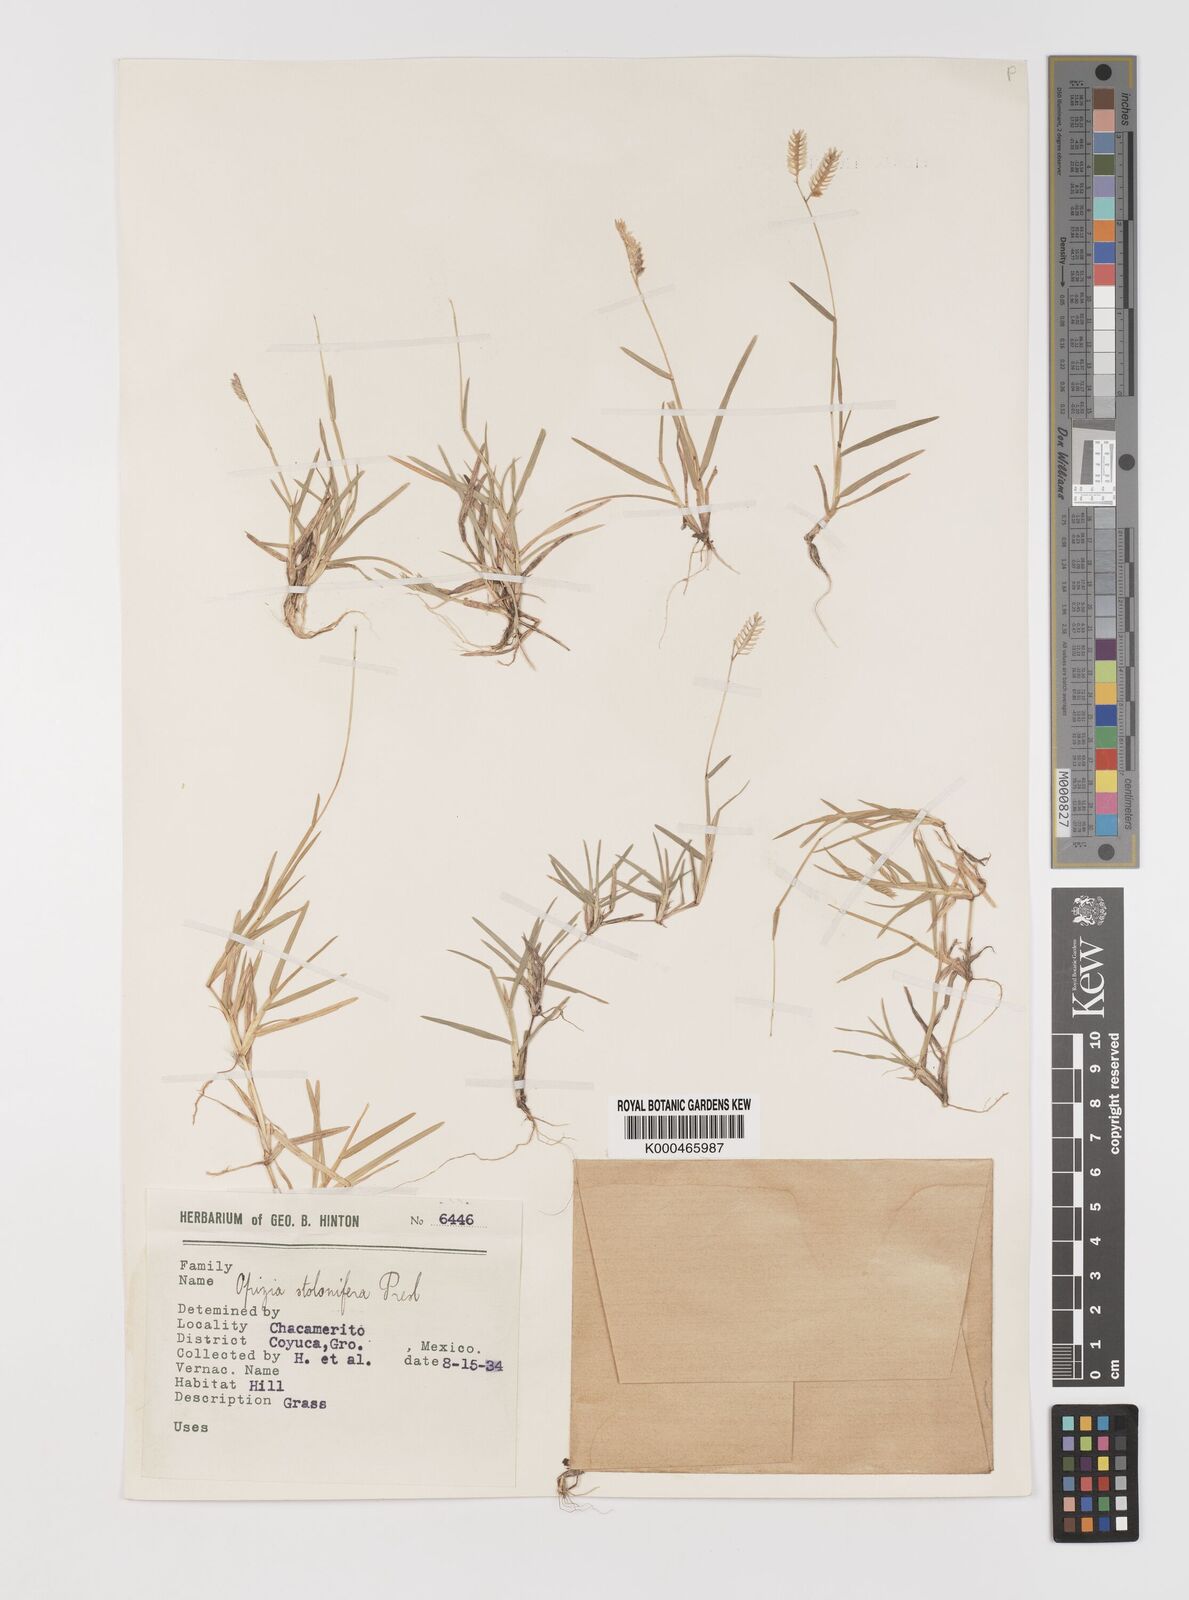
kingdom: Plantae
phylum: Tracheophyta
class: Liliopsida
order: Poales
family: Poaceae
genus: Bouteloua
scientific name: Bouteloua dimorpha
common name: Acapulco grass
